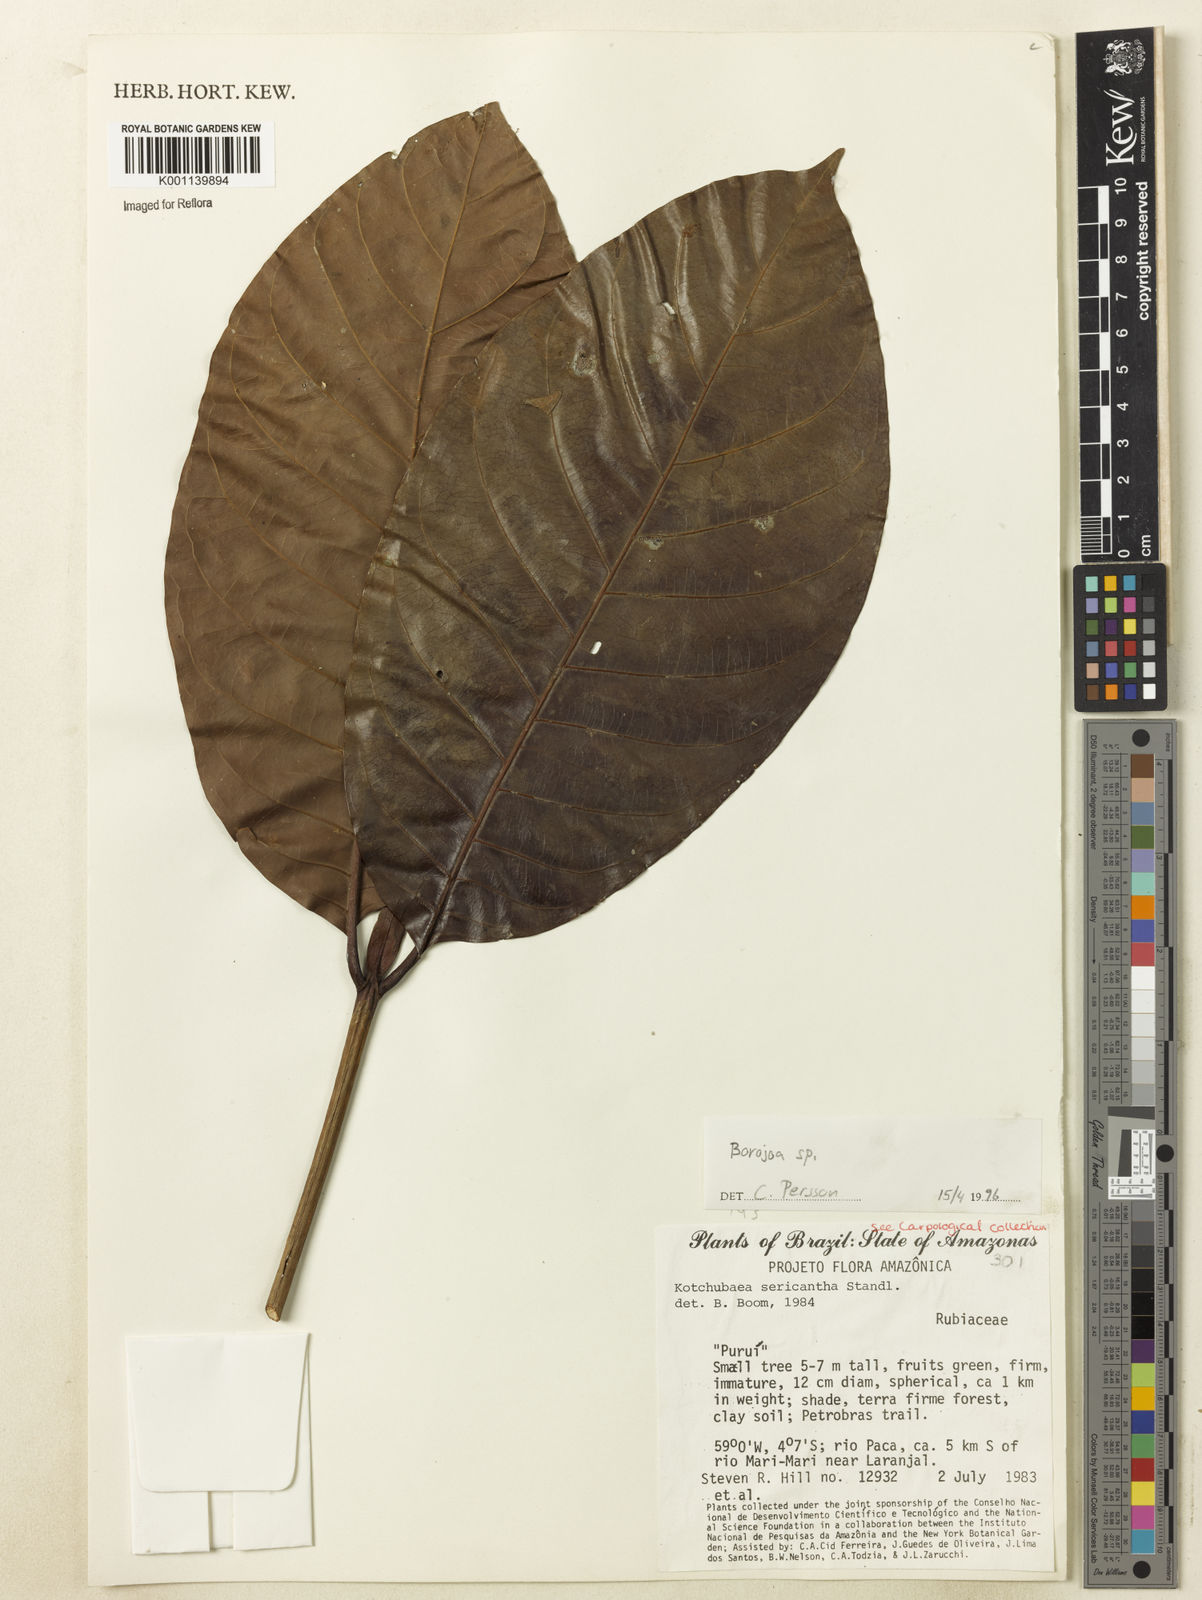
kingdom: Plantae
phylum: Tracheophyta
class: Magnoliopsida
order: Gentianales
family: Rubiaceae
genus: Alibertia
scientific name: Alibertia
